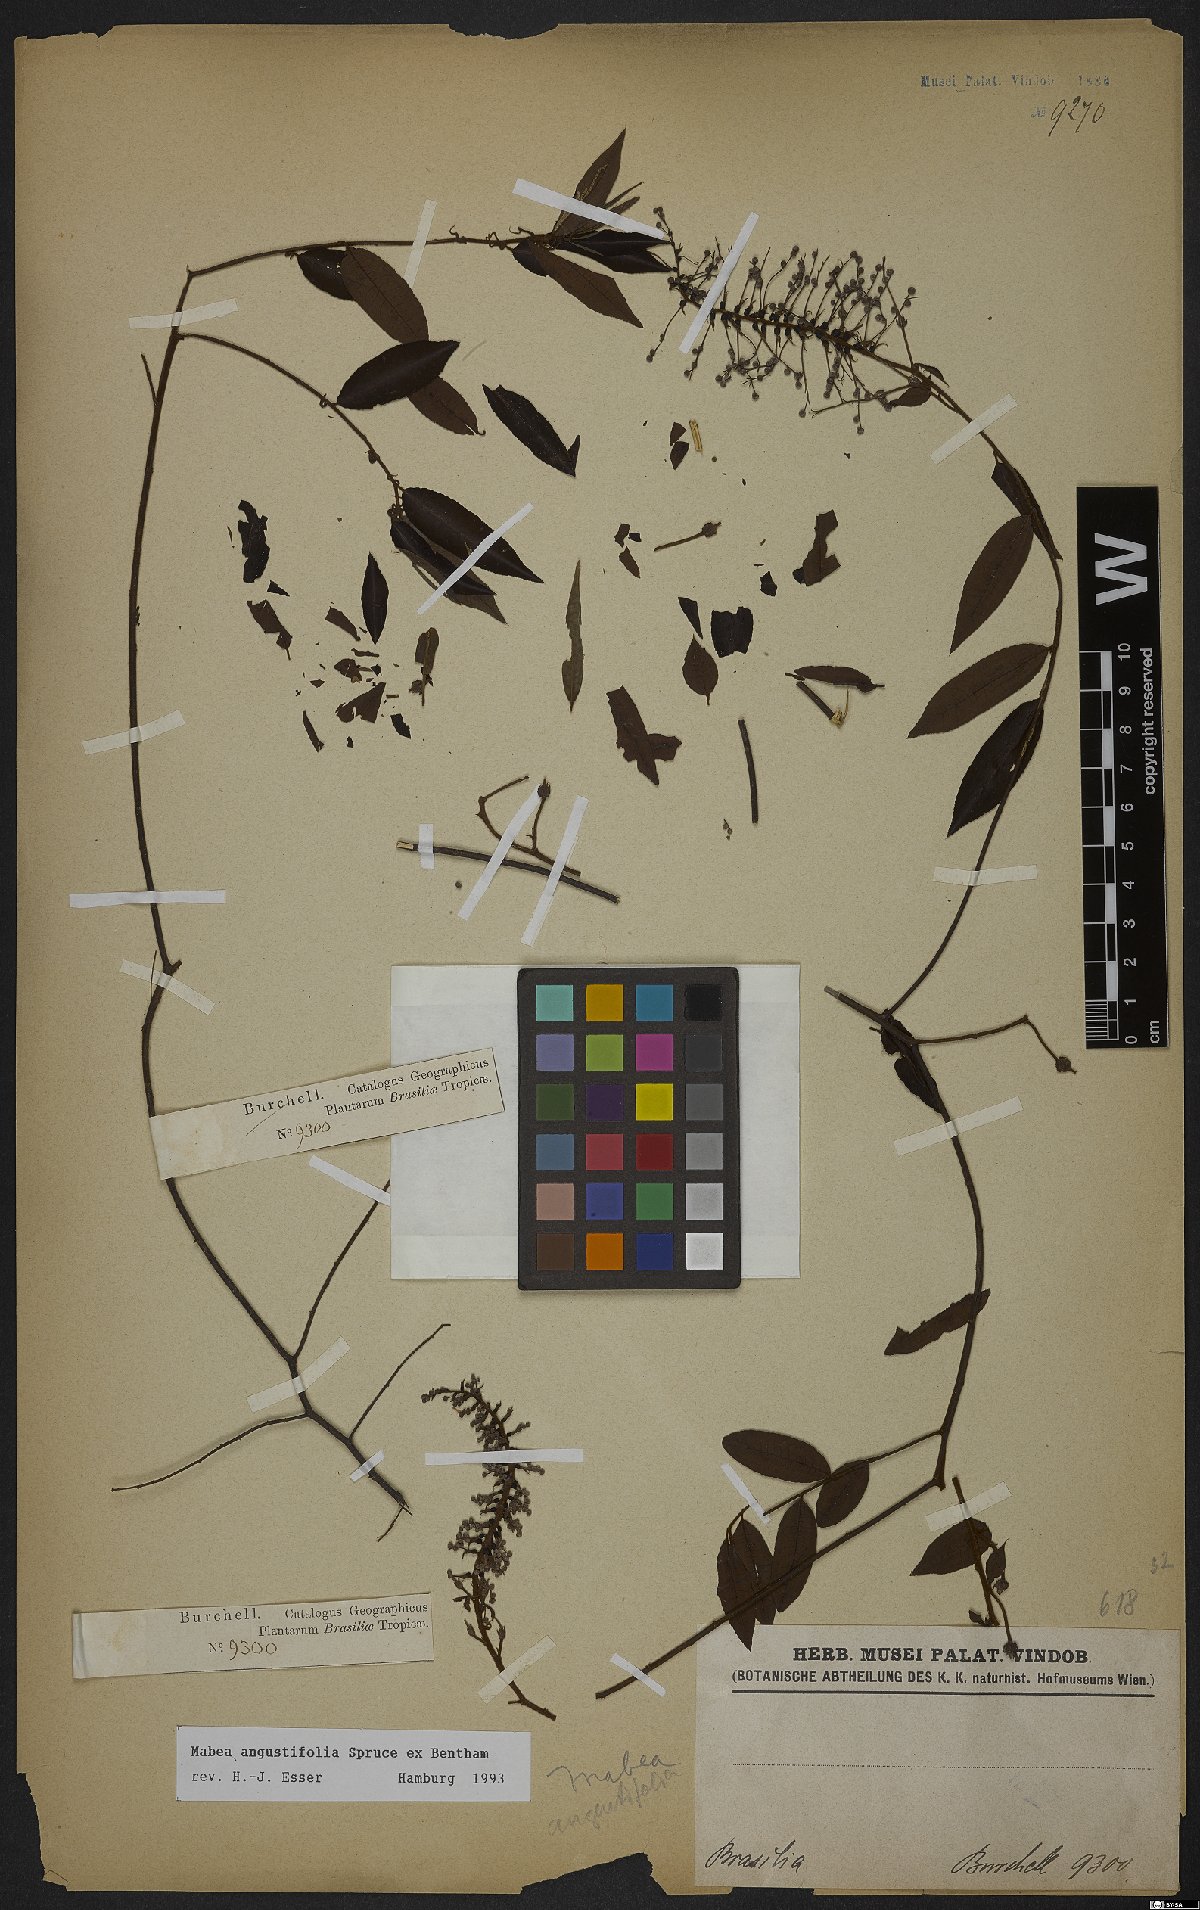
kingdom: Plantae
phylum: Tracheophyta
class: Magnoliopsida
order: Malpighiales
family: Euphorbiaceae
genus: Mabea
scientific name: Mabea angustifolia
